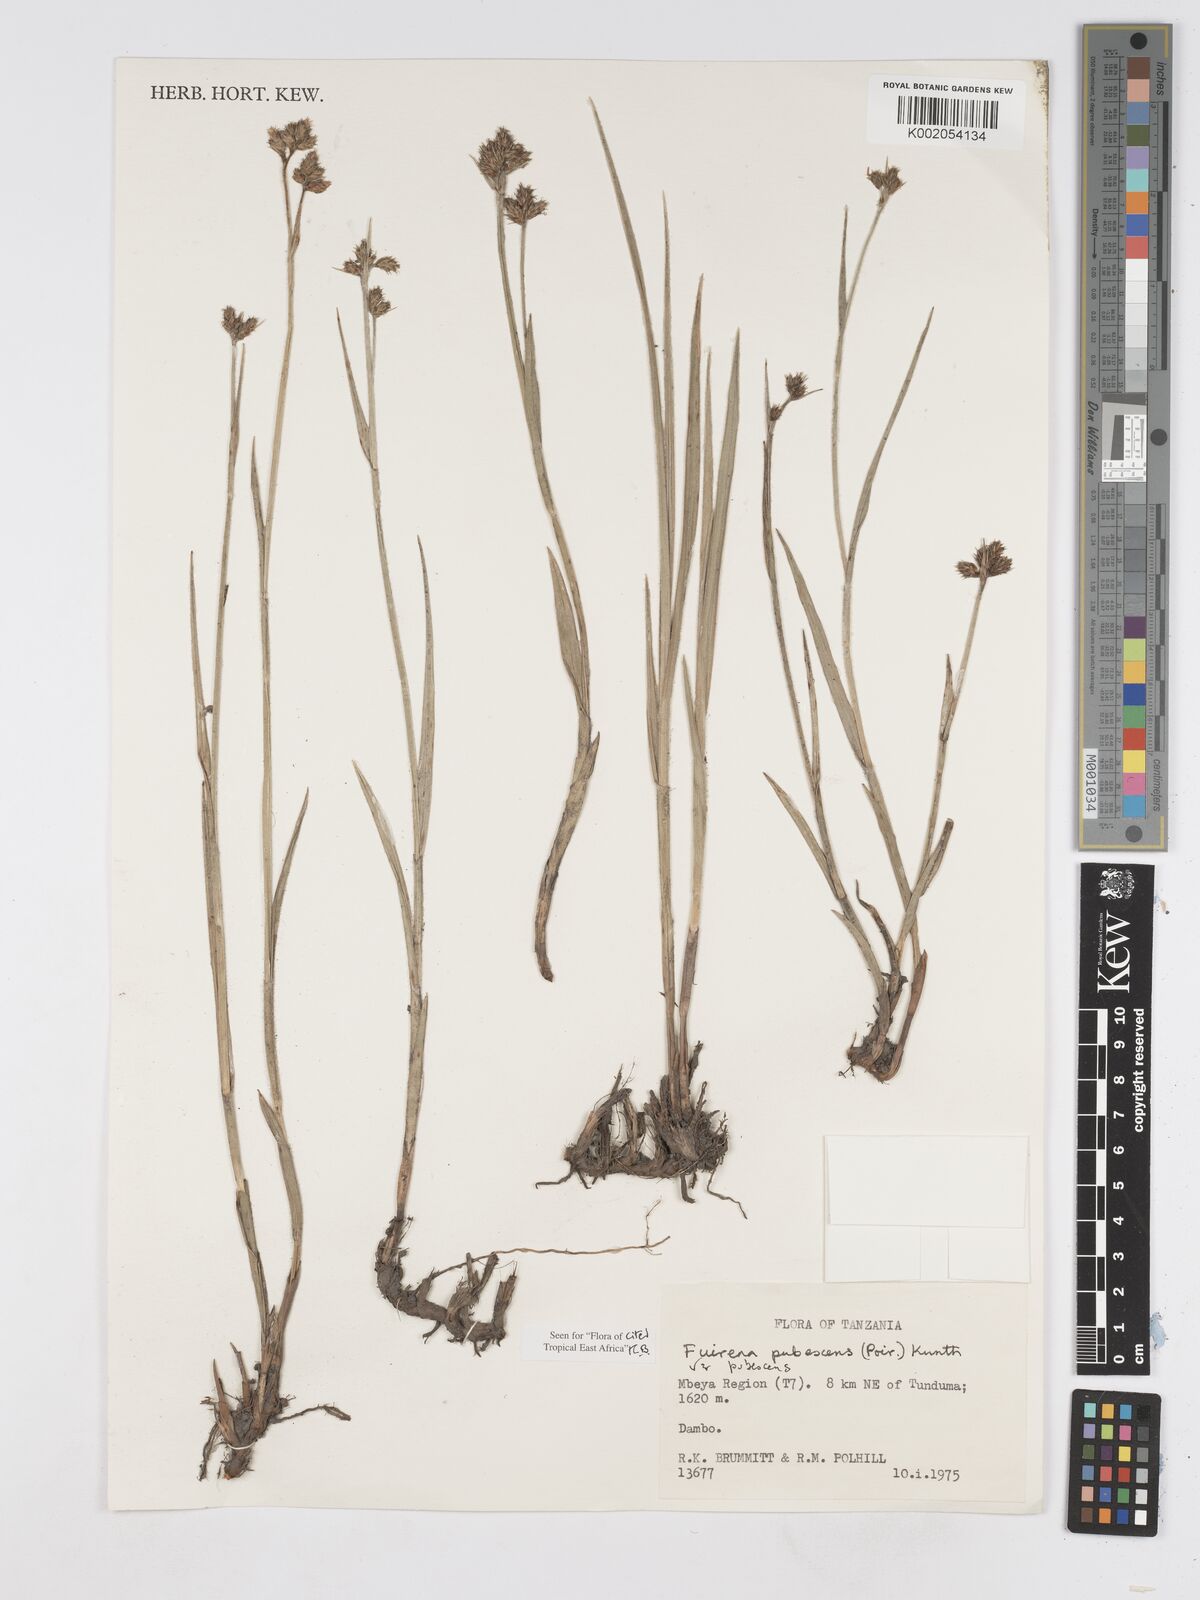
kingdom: Plantae
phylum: Tracheophyta
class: Liliopsida
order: Poales
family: Cyperaceae
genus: Fuirena
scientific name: Fuirena pubescens
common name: Hairy sedge
